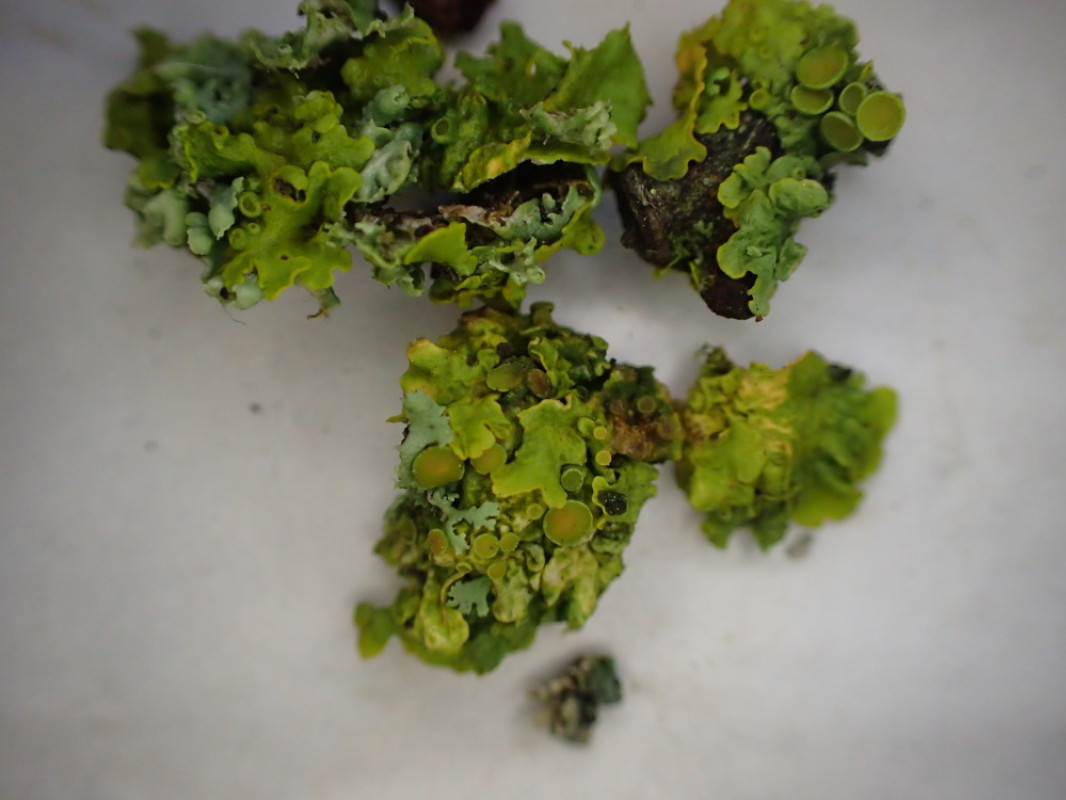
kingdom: Fungi
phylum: Ascomycota
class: Lecanoromycetes
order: Teloschistales
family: Teloschistaceae
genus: Xanthoria
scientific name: Xanthoria parietina
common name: almindelig væggelav
